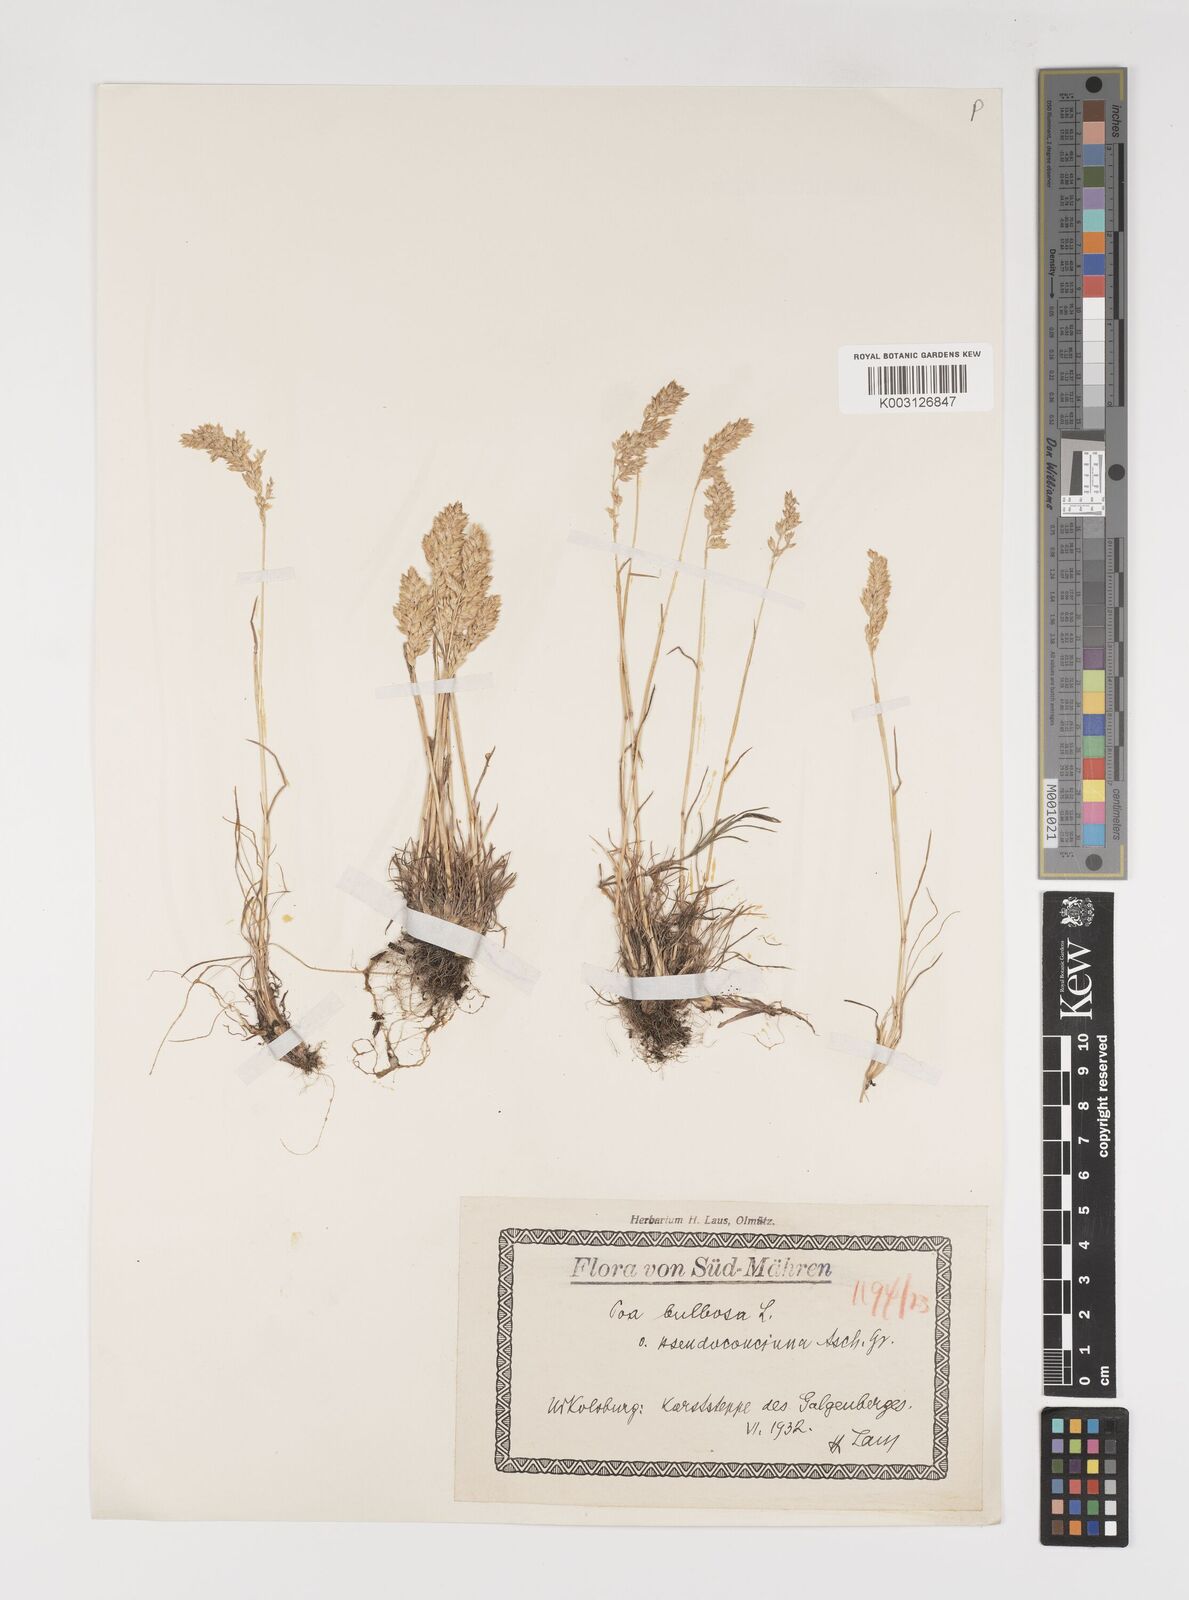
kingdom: Plantae
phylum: Tracheophyta
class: Liliopsida
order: Poales
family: Poaceae
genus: Poa
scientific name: Poa bulbosa
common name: Bulbous bluegrass
